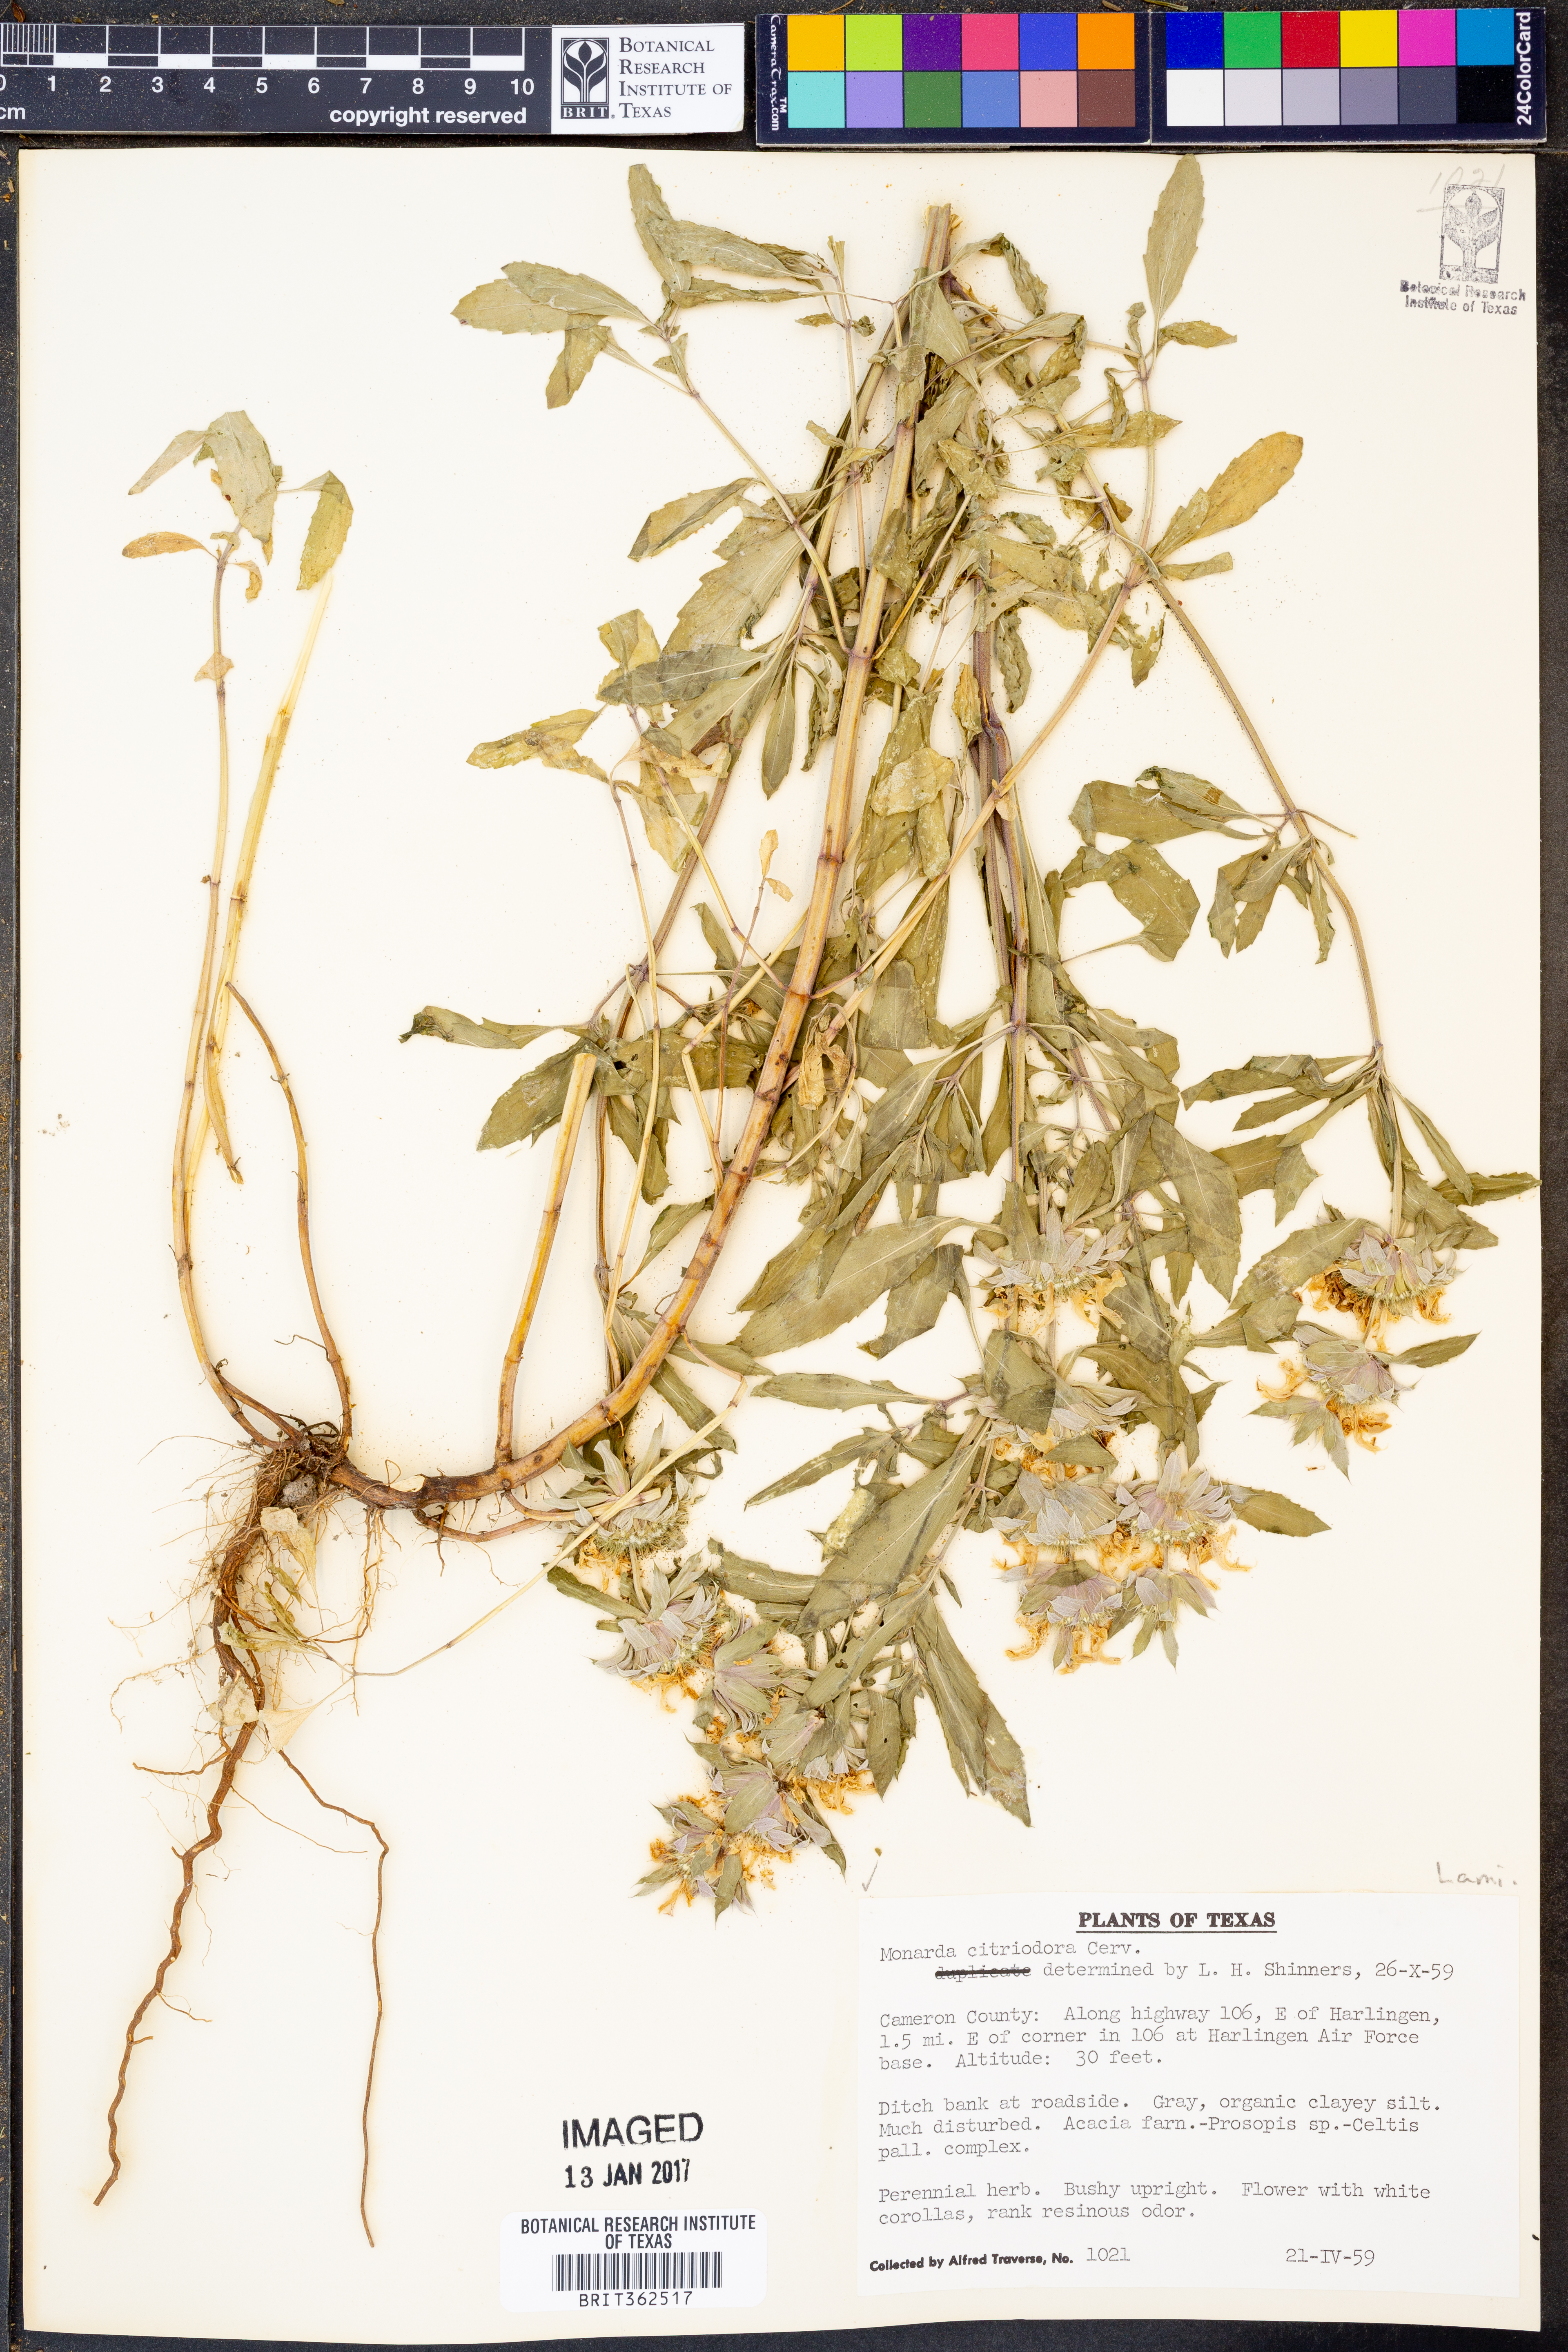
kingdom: Plantae
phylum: Tracheophyta
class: Magnoliopsida
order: Lamiales
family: Lamiaceae
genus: Monarda
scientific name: Monarda citriodora
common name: Lemon beebalm
